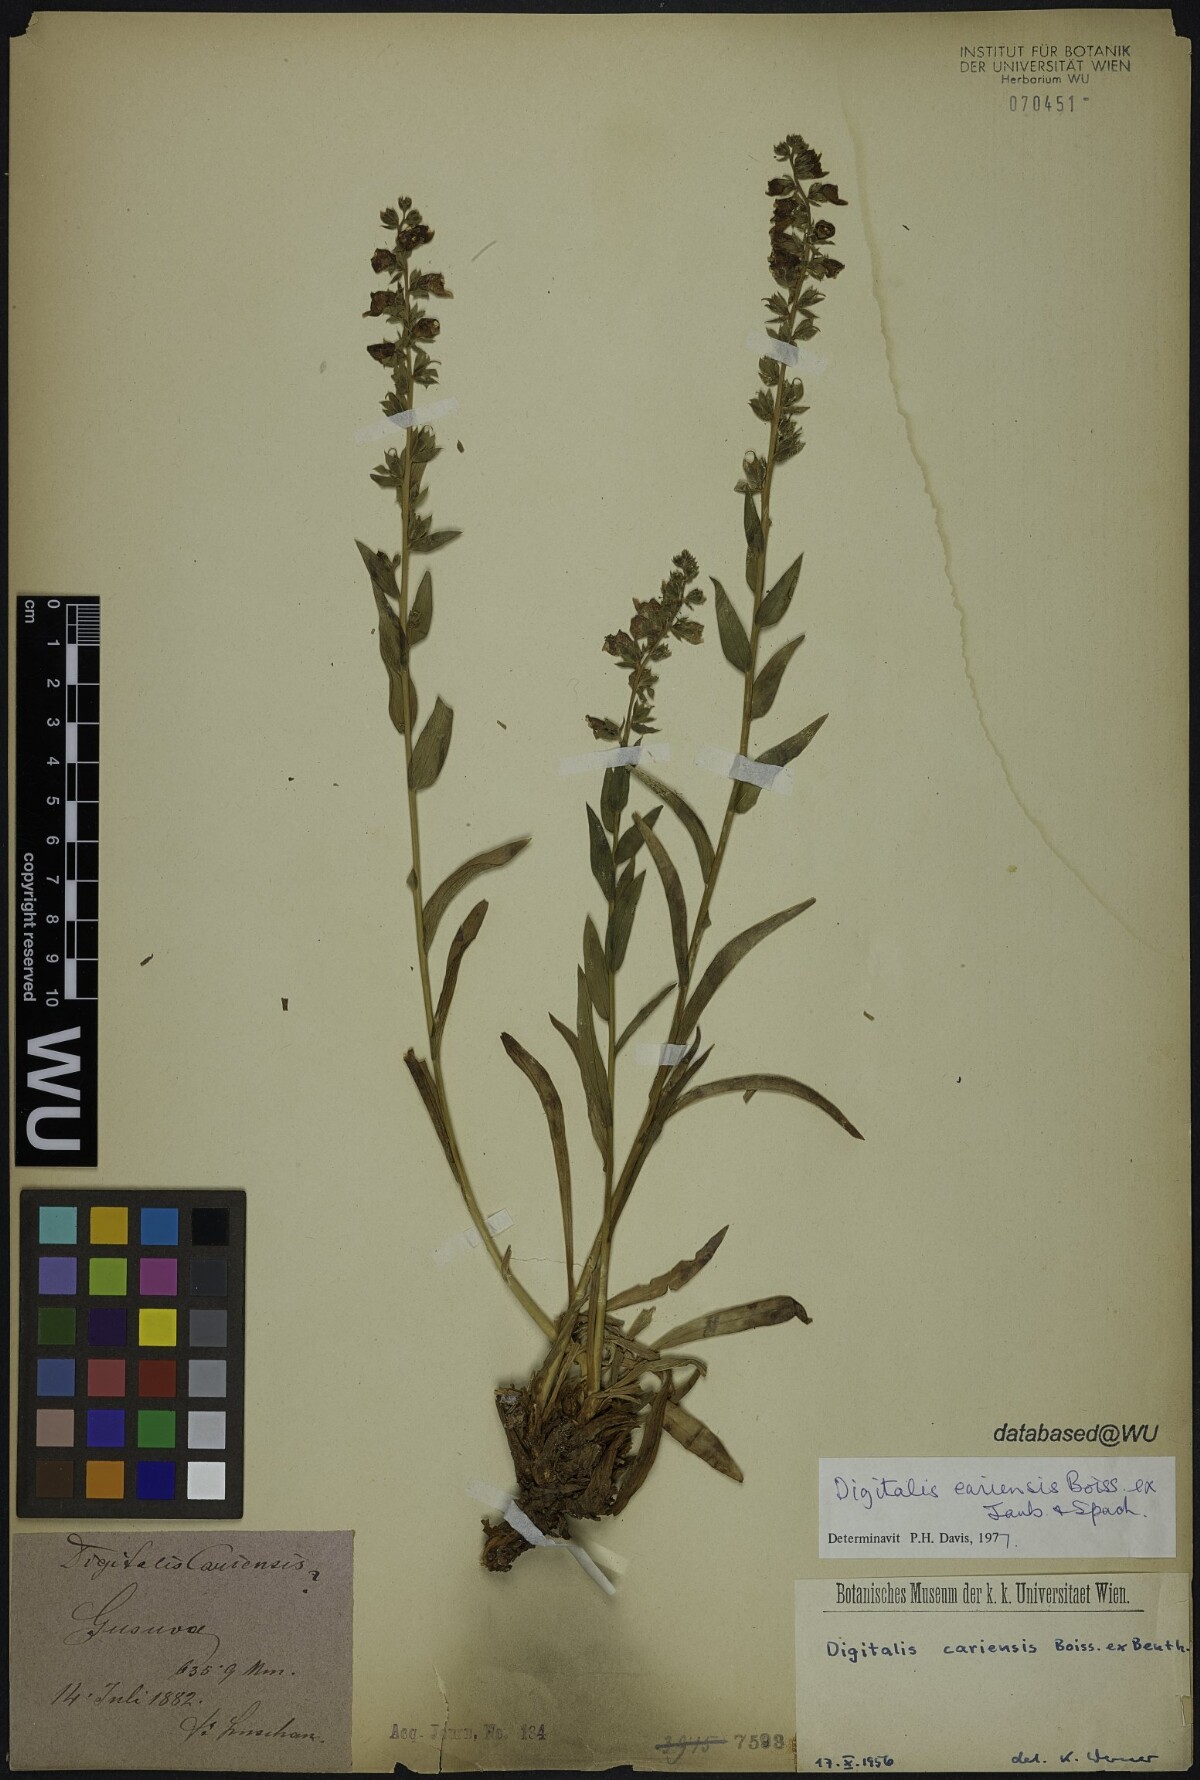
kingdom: Plantae
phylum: Tracheophyta
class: Magnoliopsida
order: Lamiales
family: Plantaginaceae
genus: Digitalis
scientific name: Digitalis cariensis
